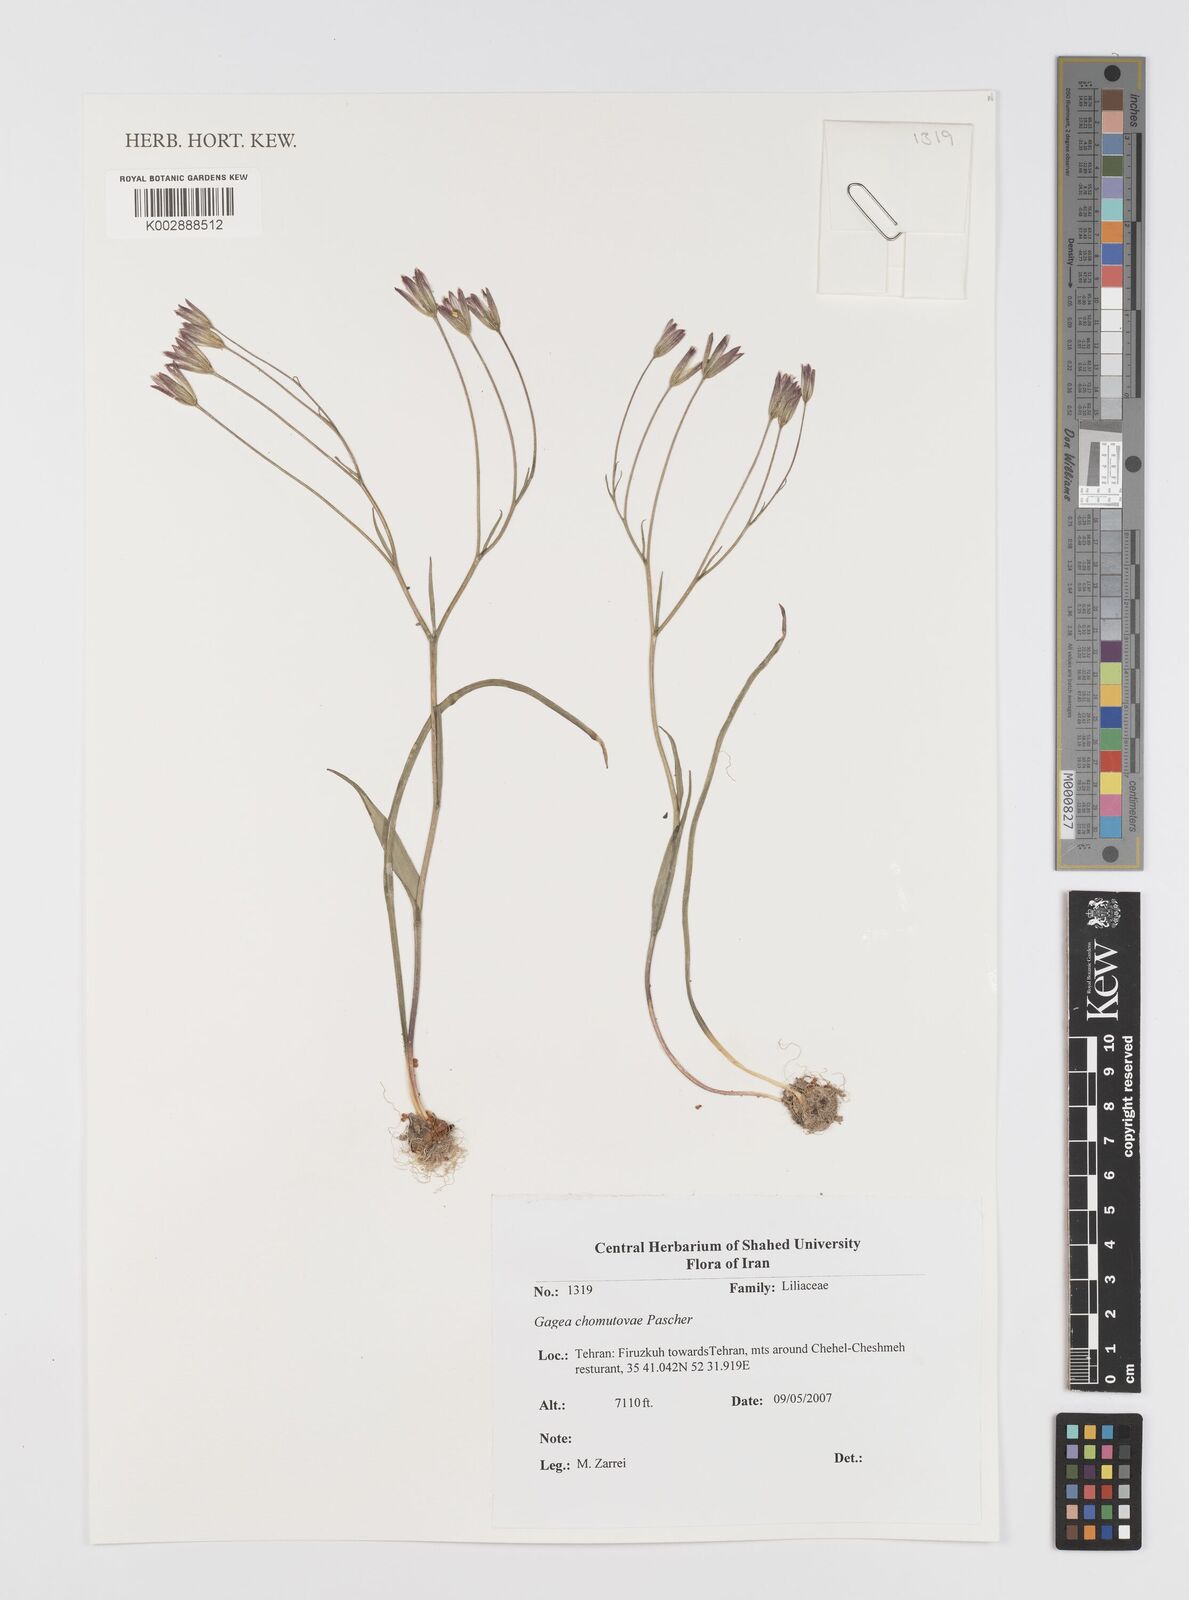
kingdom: Plantae
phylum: Tracheophyta
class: Liliopsida
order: Liliales
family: Liliaceae
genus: Gagea
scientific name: Gagea chomutovae
